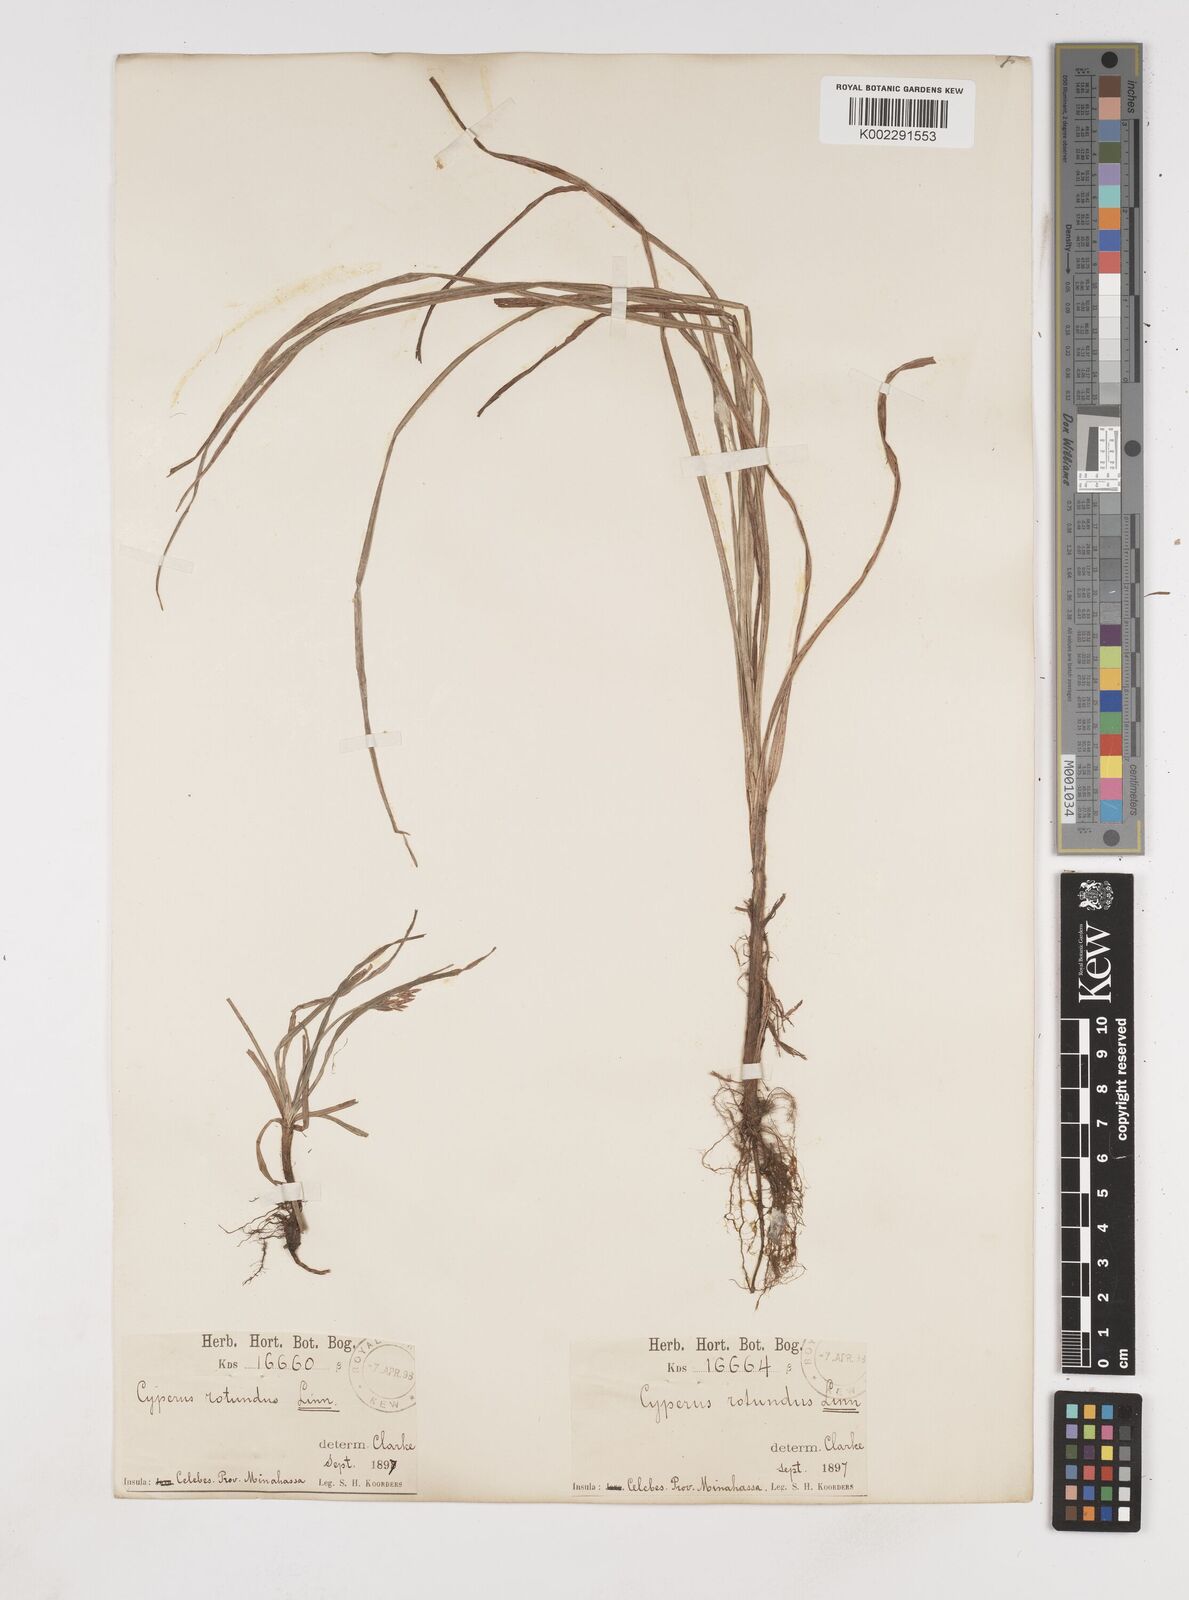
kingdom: Plantae
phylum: Tracheophyta
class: Liliopsida
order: Poales
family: Cyperaceae
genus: Cyperus
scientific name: Cyperus rotundus
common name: Nutgrass
